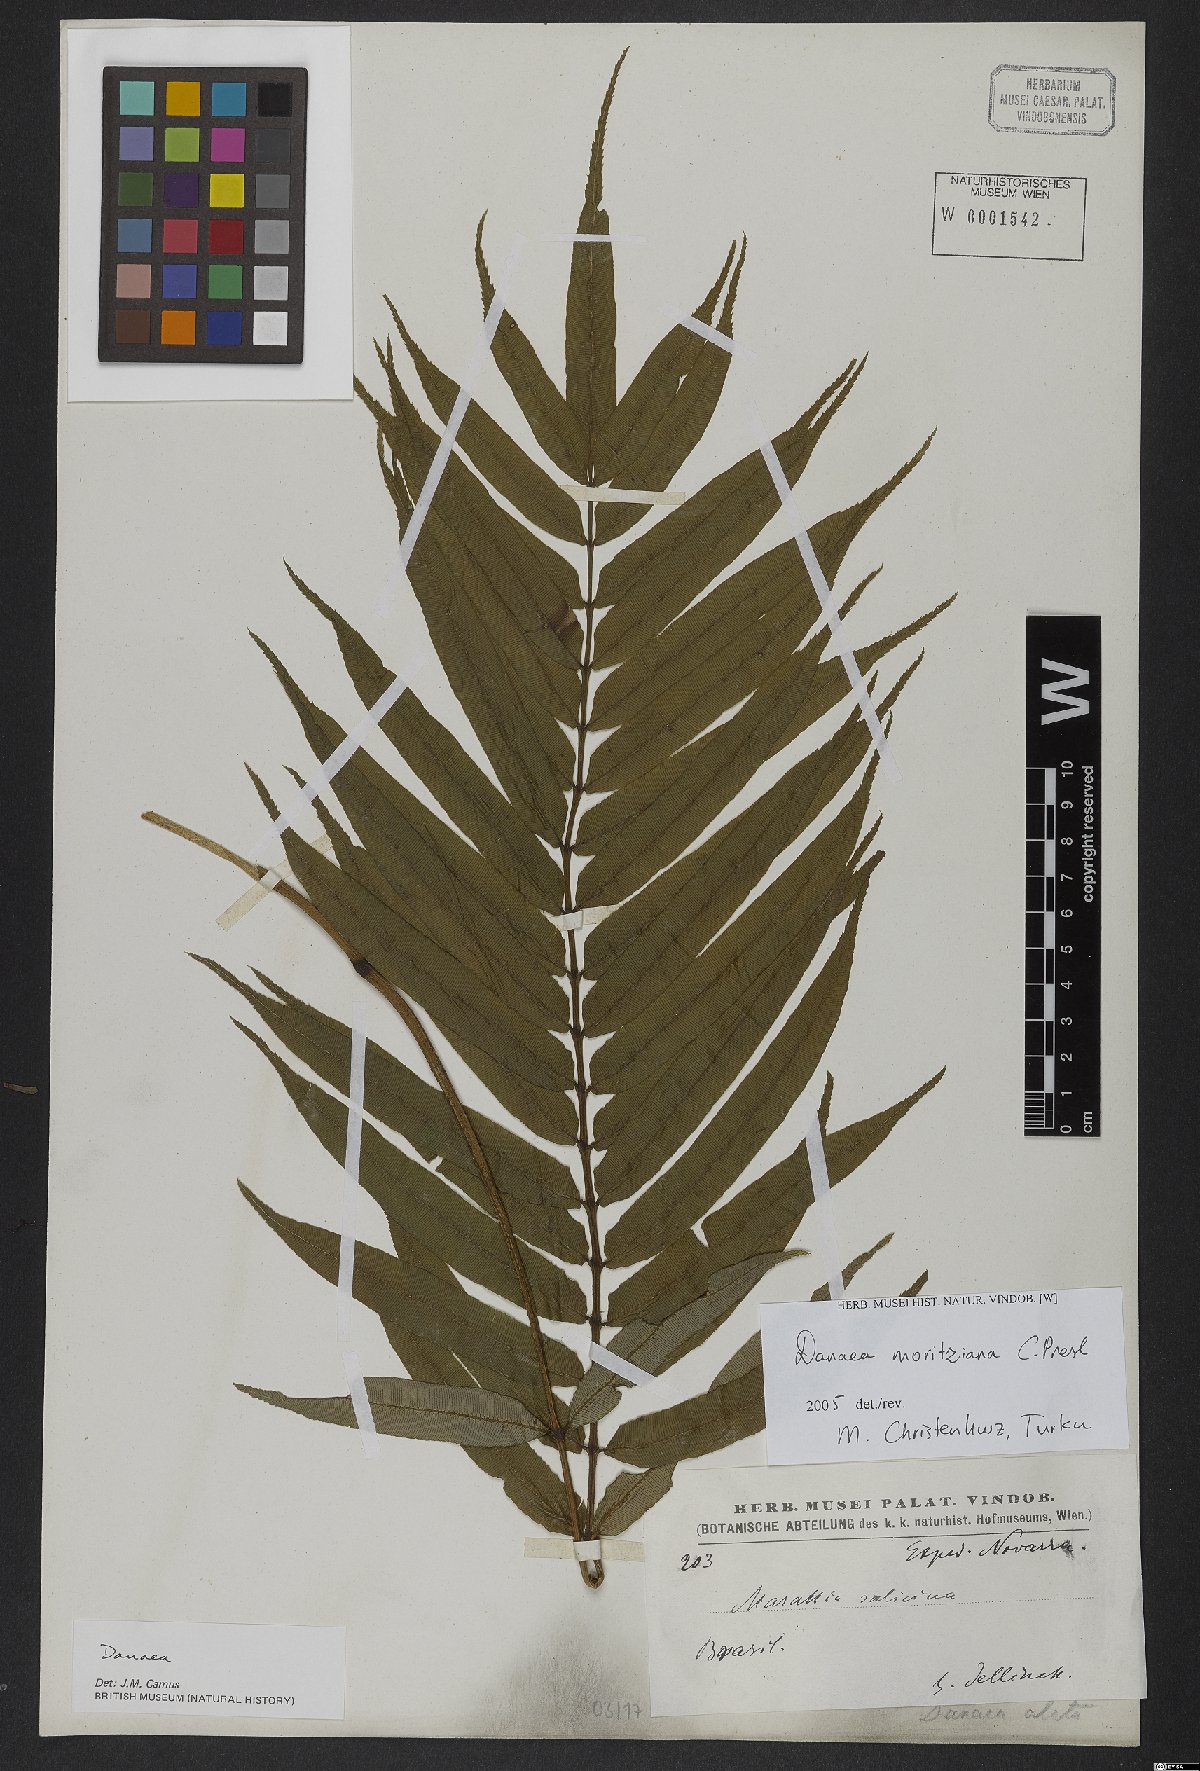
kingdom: Plantae
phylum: Tracheophyta
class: Polypodiopsida
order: Marattiales
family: Marattiaceae
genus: Danaea
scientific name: Danaea moritziana
